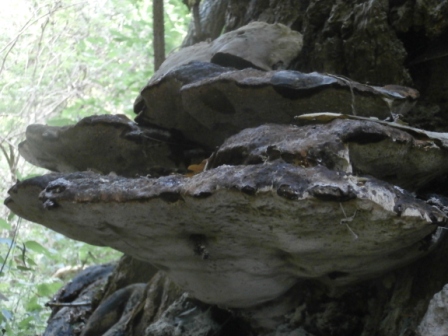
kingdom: Fungi
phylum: Basidiomycota
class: Agaricomycetes
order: Hymenochaetales
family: Hymenochaetaceae
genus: Pseudoinonotus
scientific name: Pseudoinonotus dryadeus
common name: ege-spejlporesvamp
